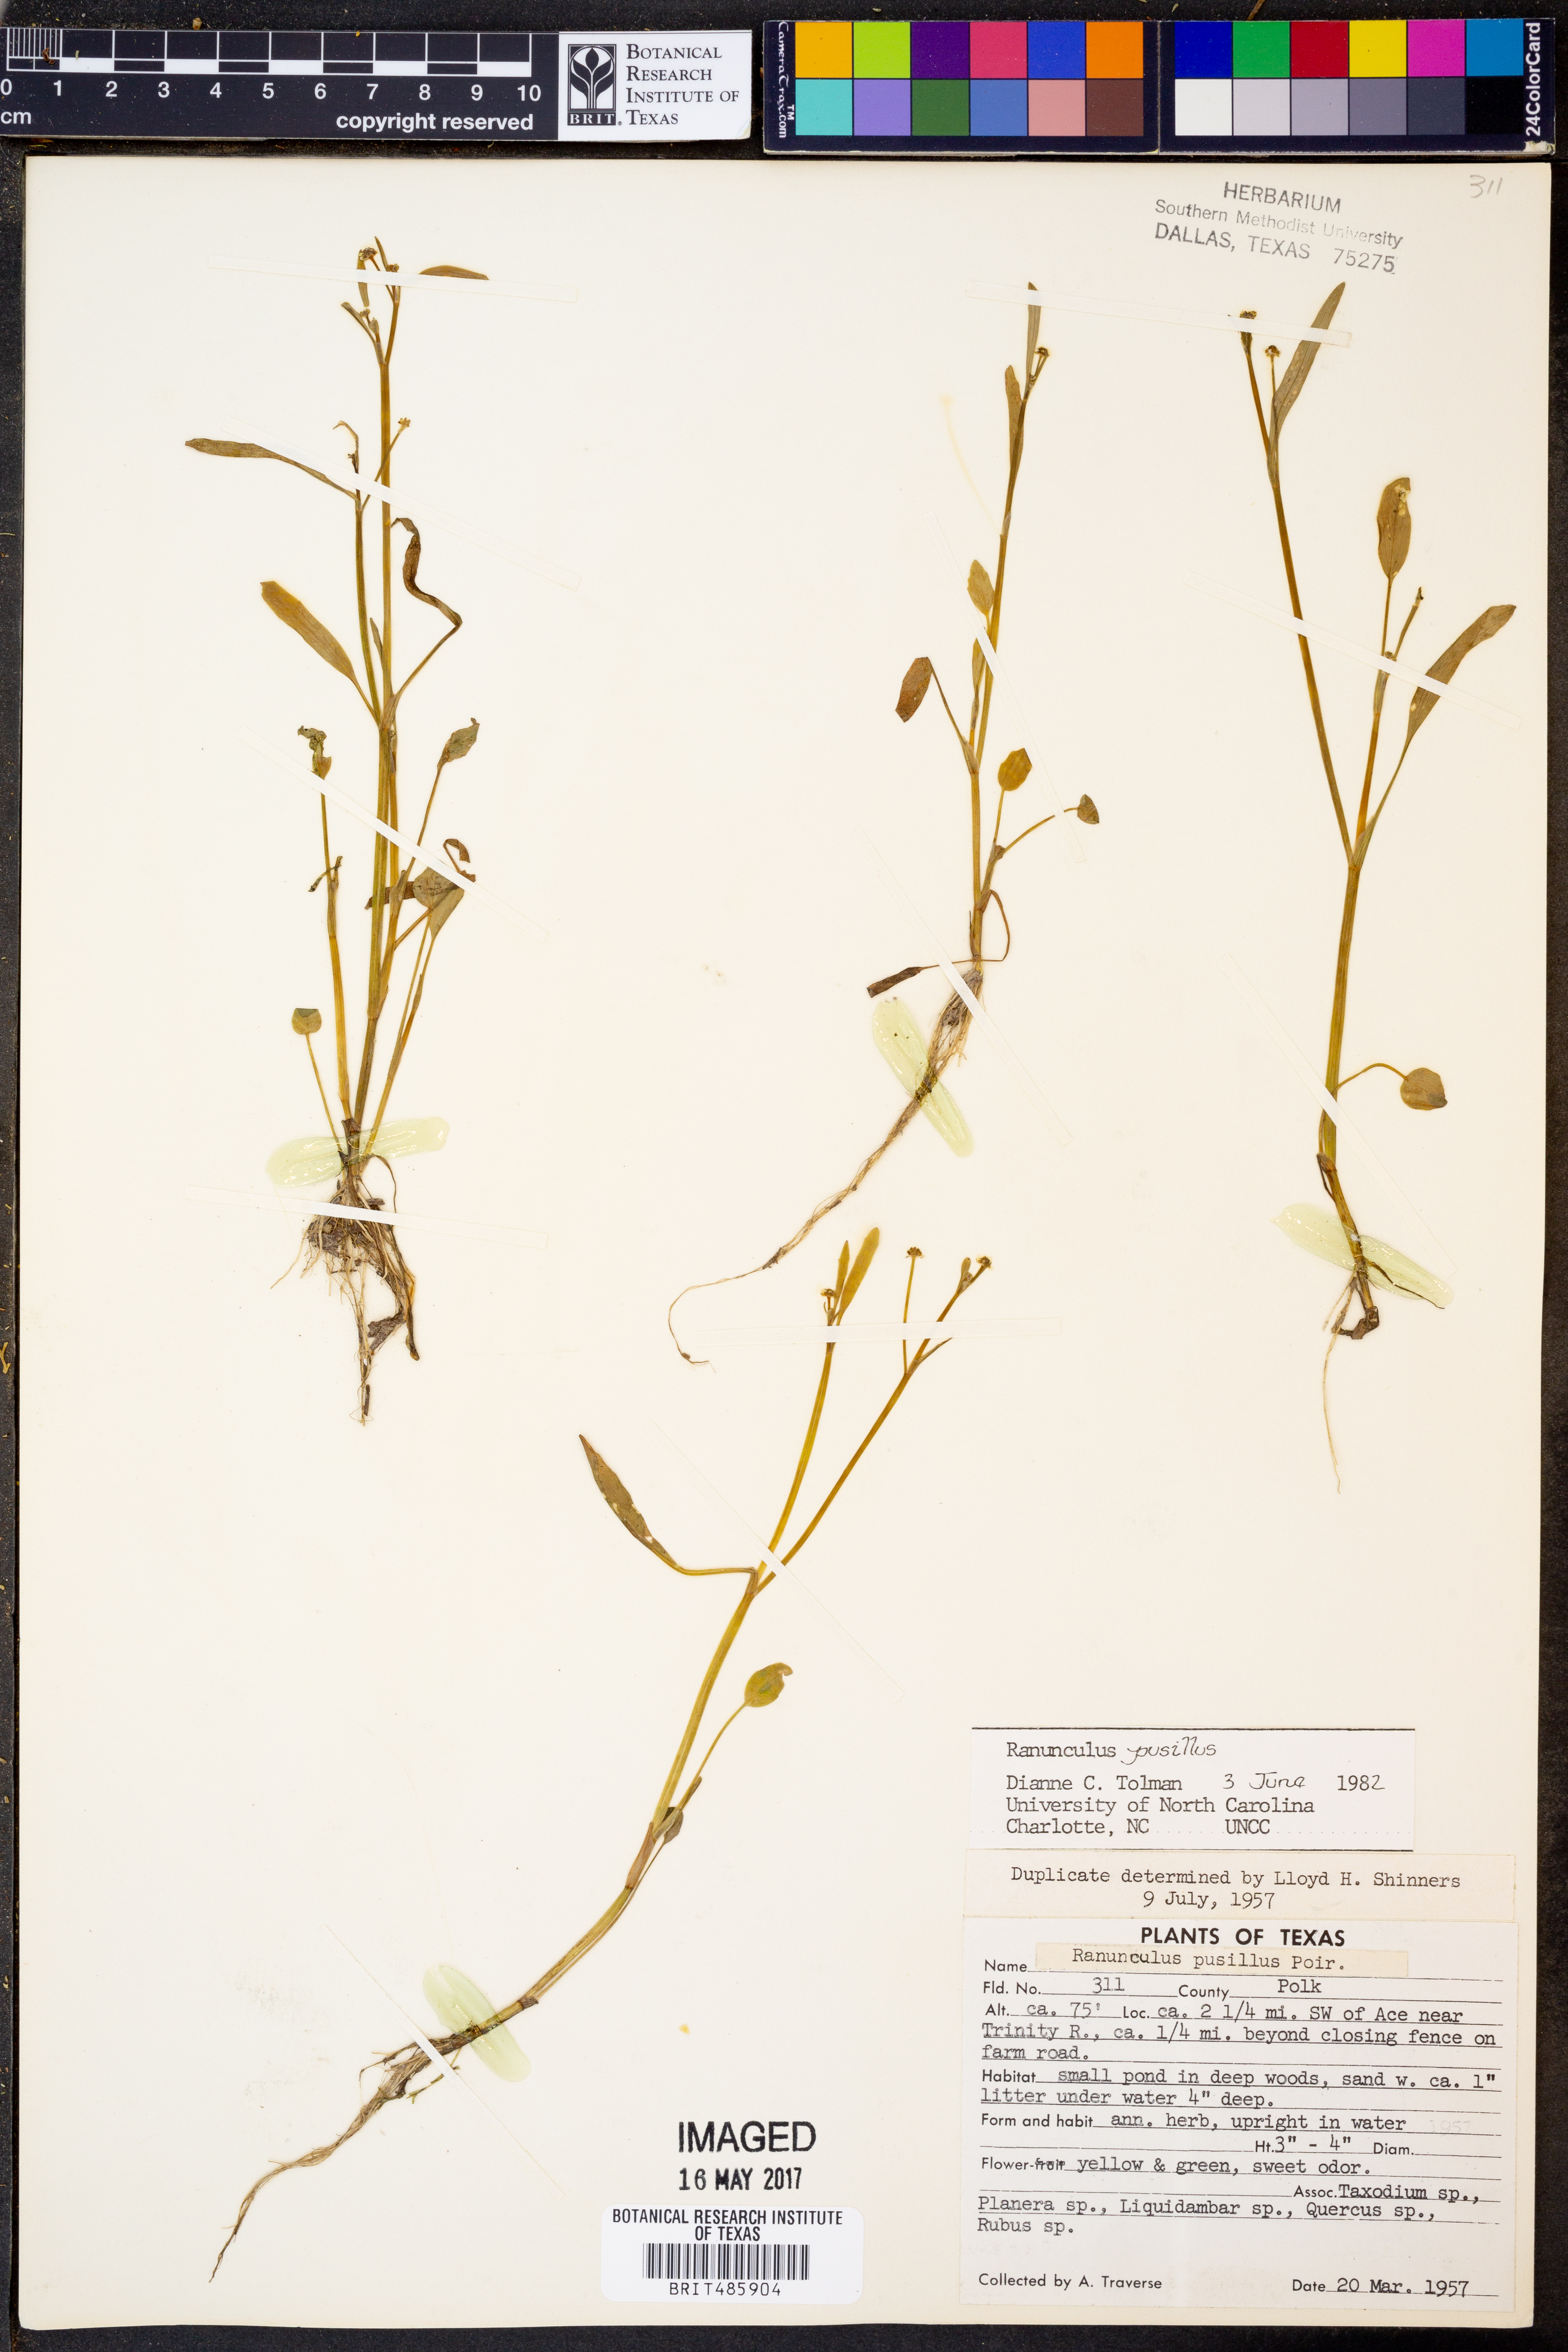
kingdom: Plantae
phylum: Tracheophyta
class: Magnoliopsida
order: Ranunculales
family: Ranunculaceae
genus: Ranunculus
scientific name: Ranunculus pusillus
